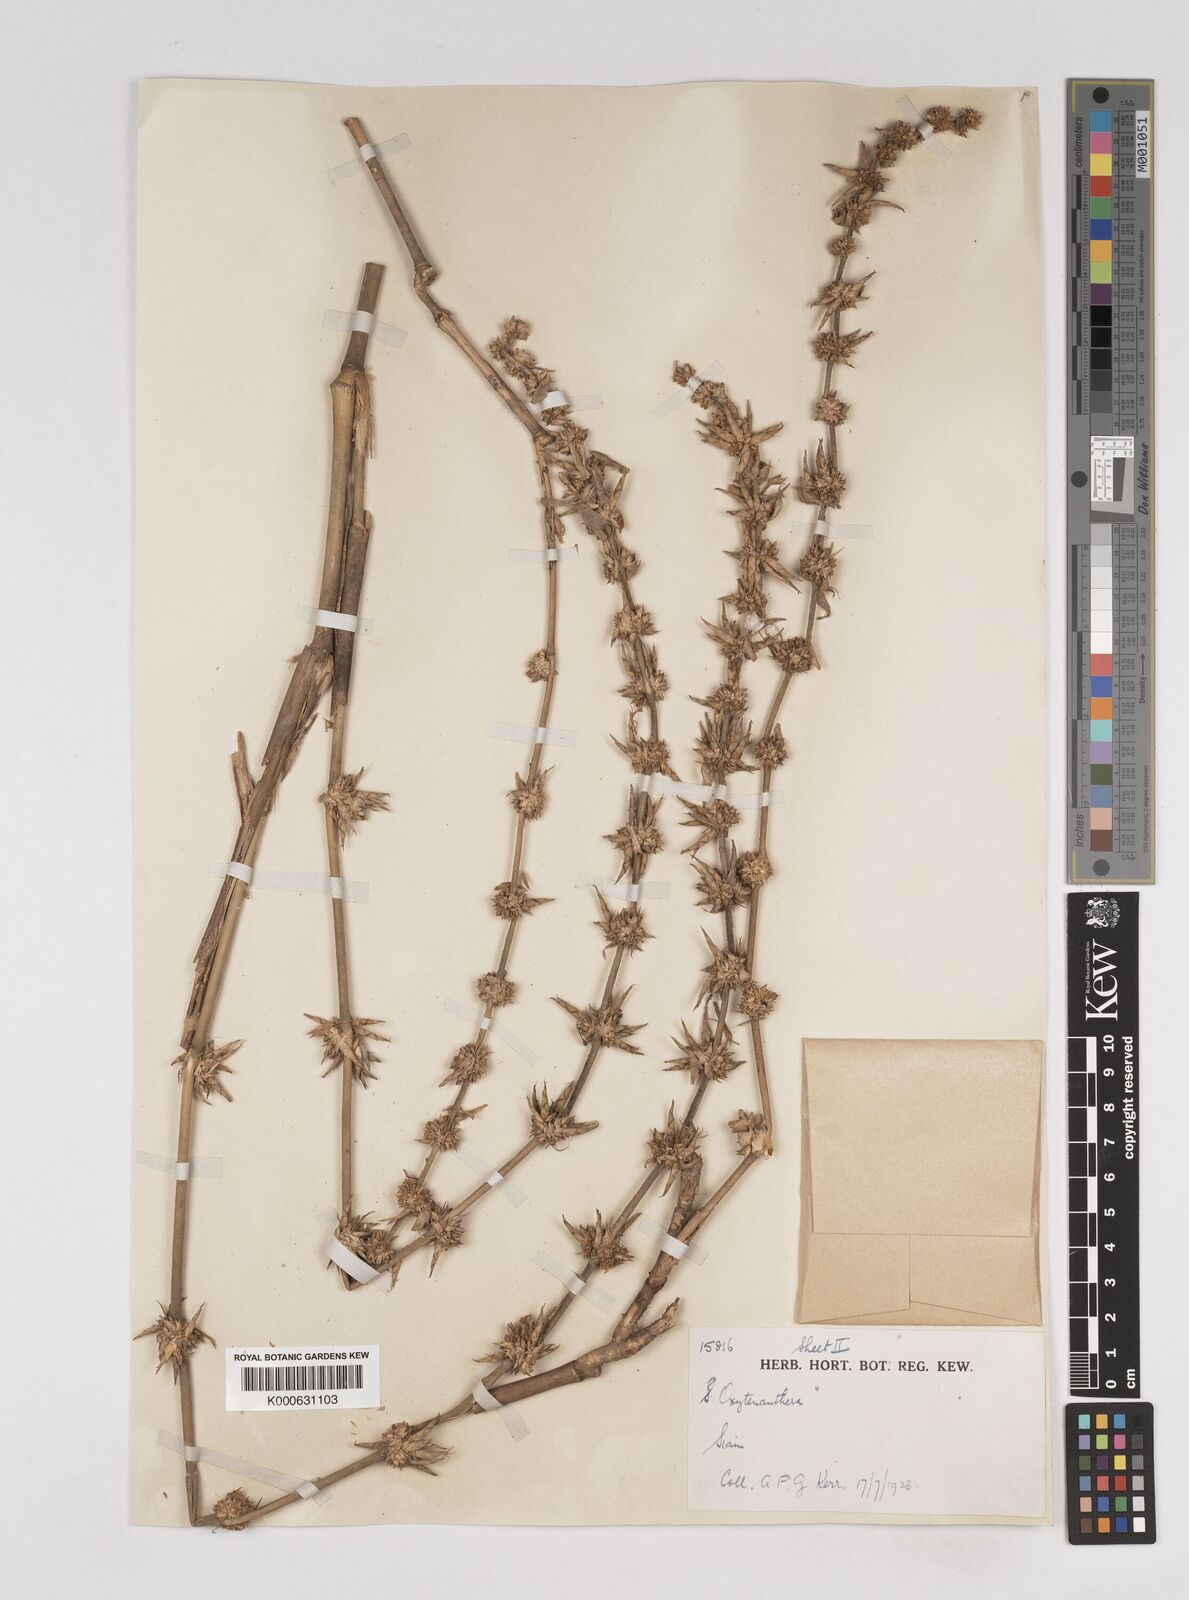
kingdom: Plantae
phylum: Tracheophyta
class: Liliopsida
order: Poales
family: Poaceae
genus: Gigantochloa
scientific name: Gigantochloa ligulata
